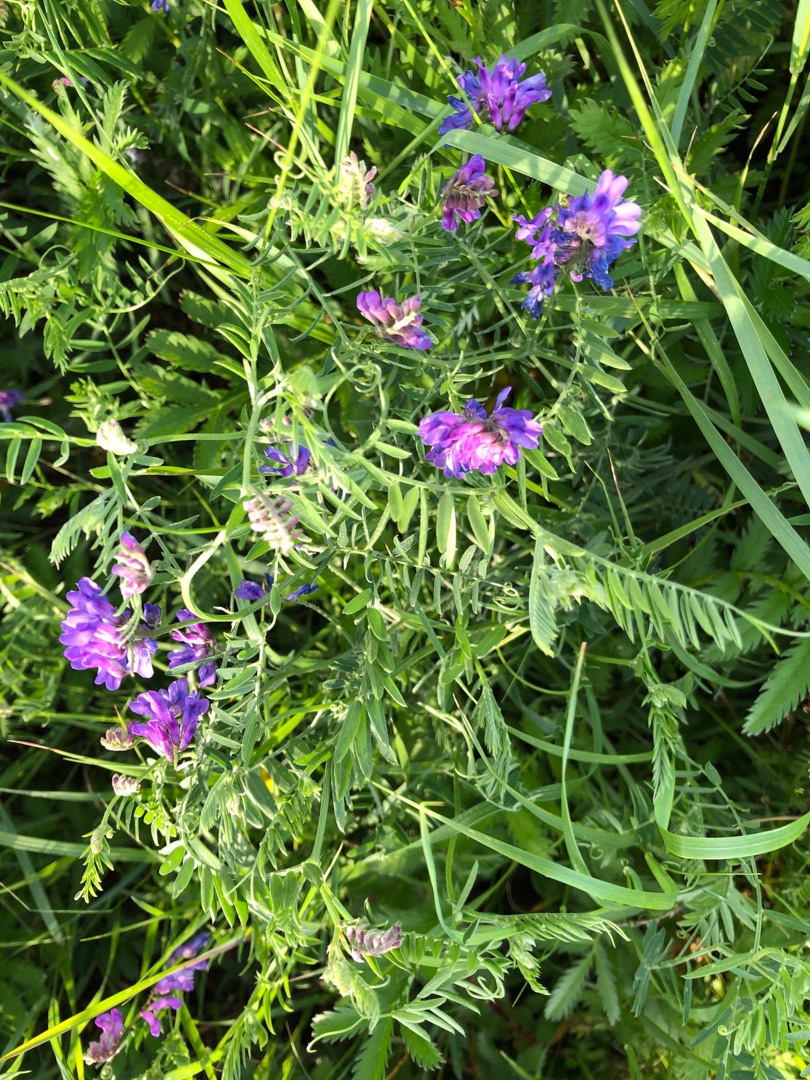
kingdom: Plantae
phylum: Tracheophyta
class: Magnoliopsida
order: Fabales
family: Fabaceae
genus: Vicia
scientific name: Vicia cracca
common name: Muse-vikke
